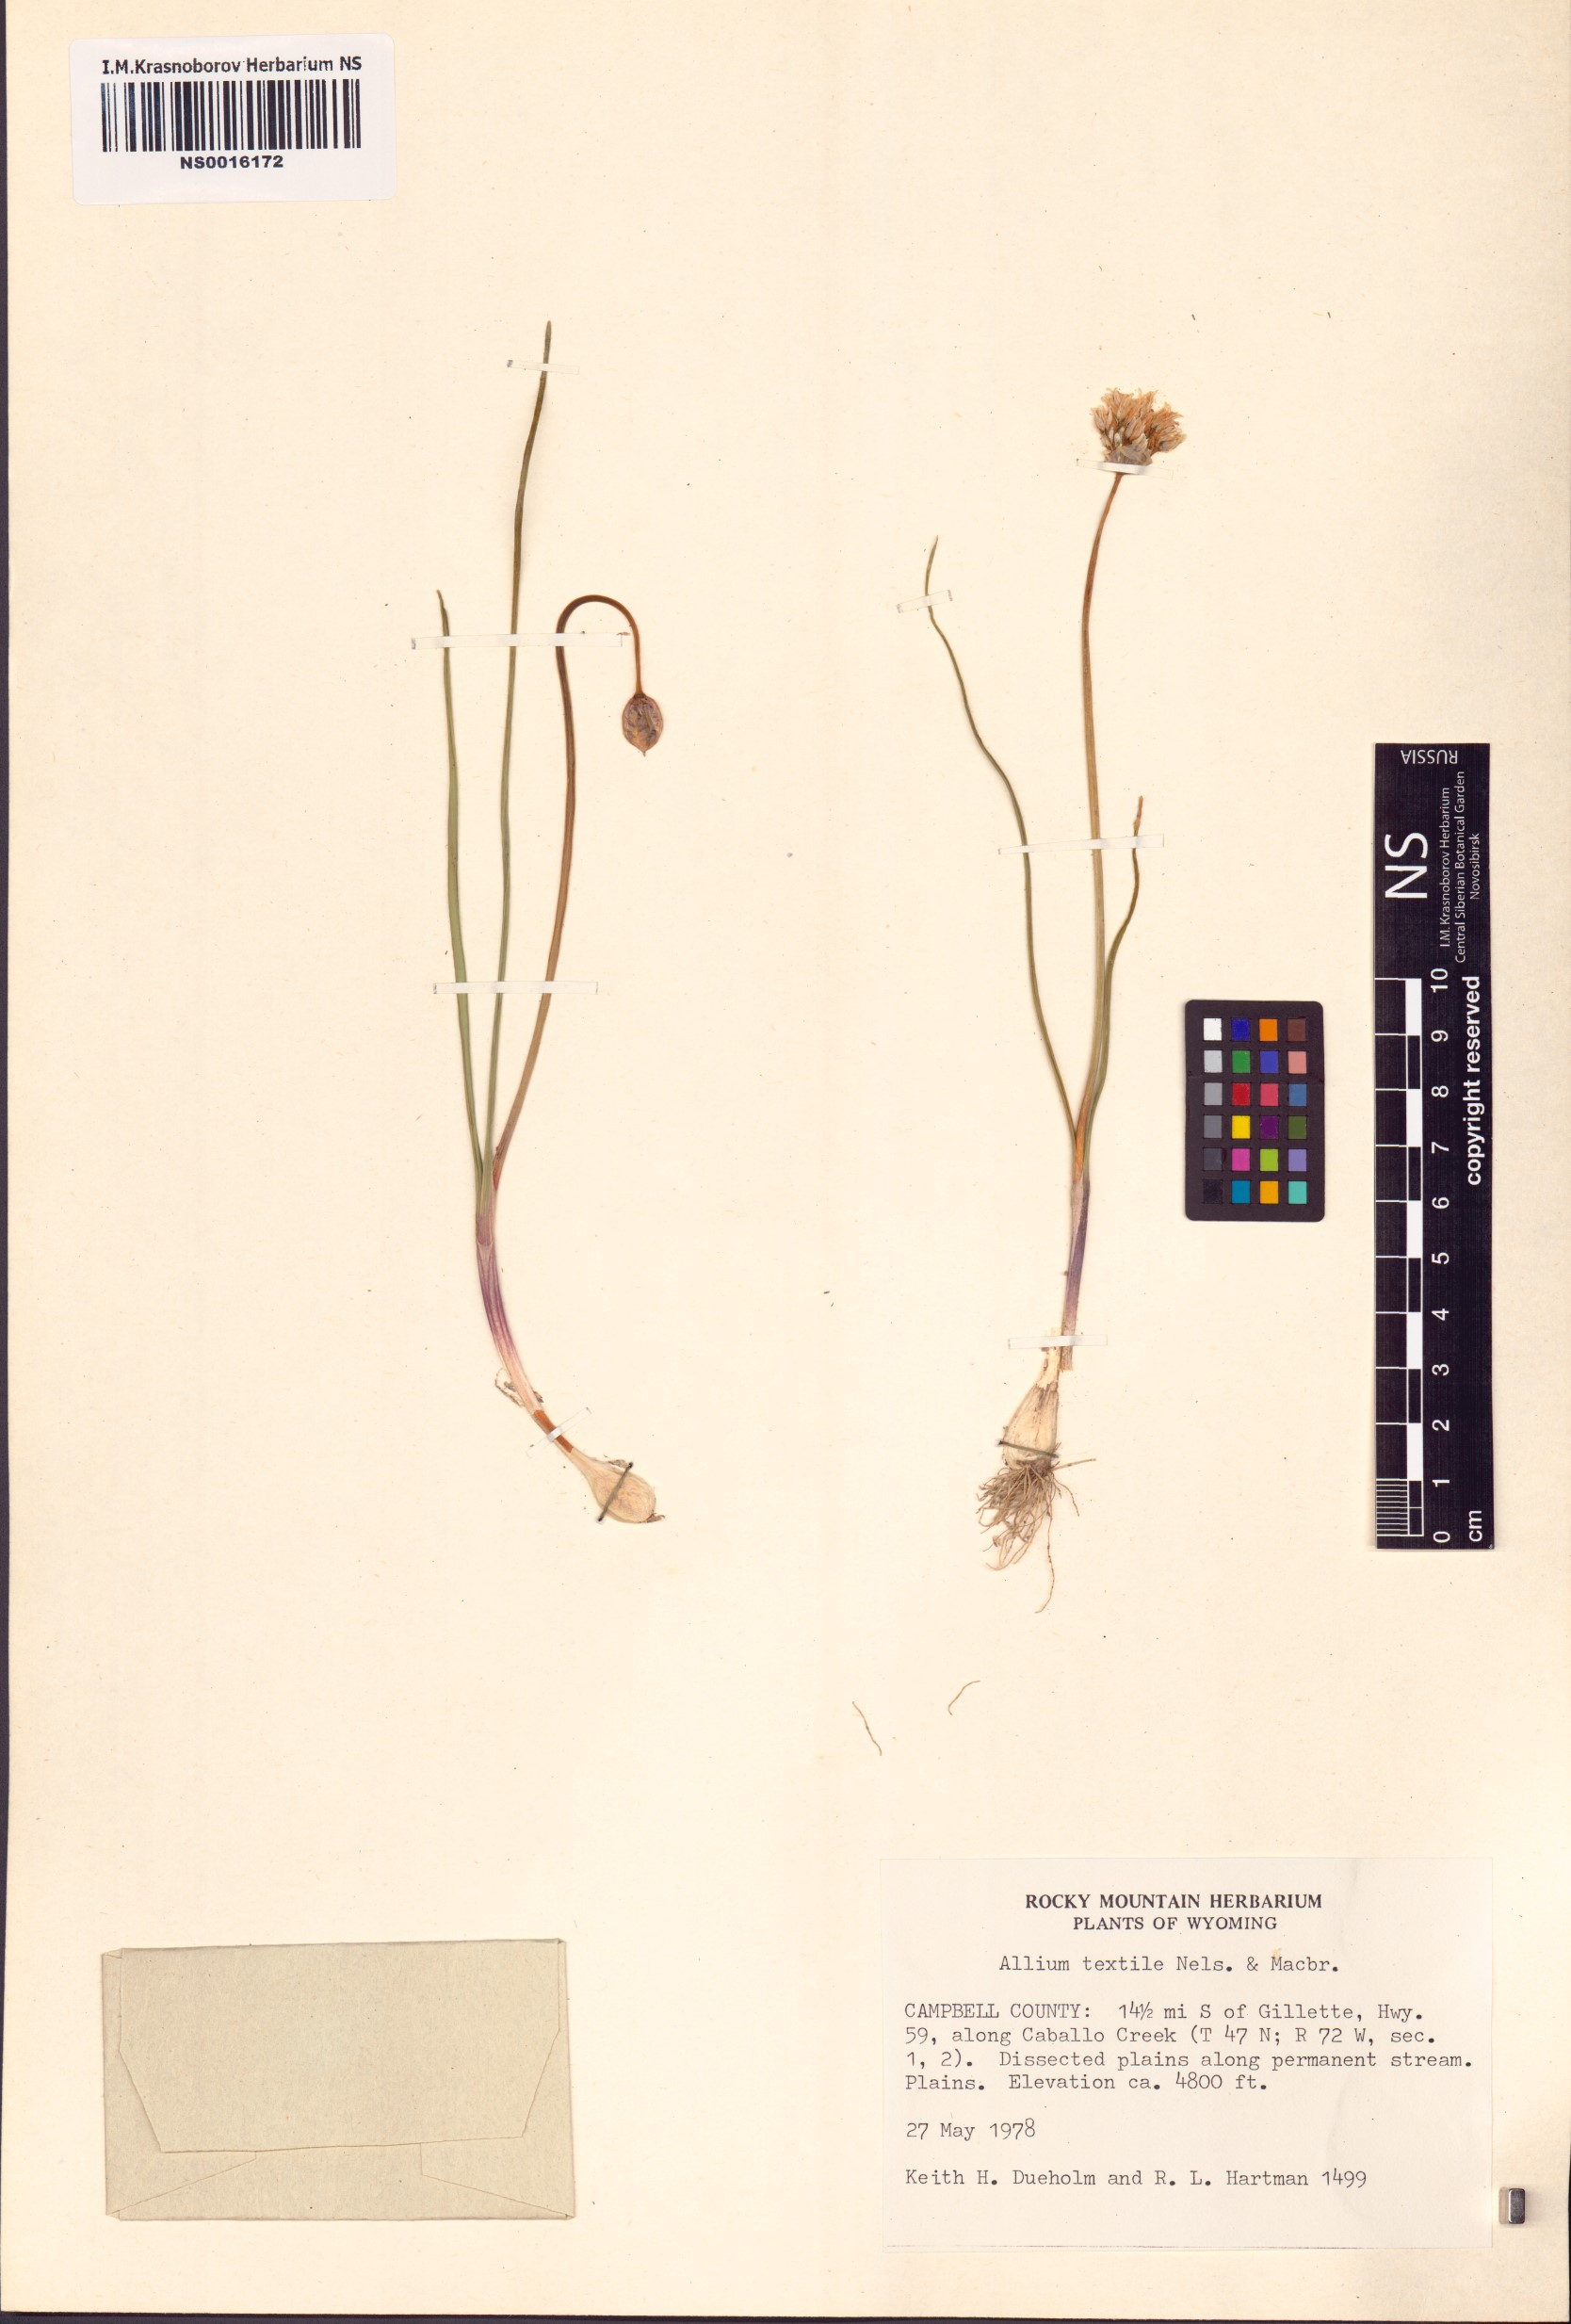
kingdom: Plantae
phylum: Tracheophyta
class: Liliopsida
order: Asparagales
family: Amaryllidaceae
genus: Allium
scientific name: Allium textile
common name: Prairie onion
